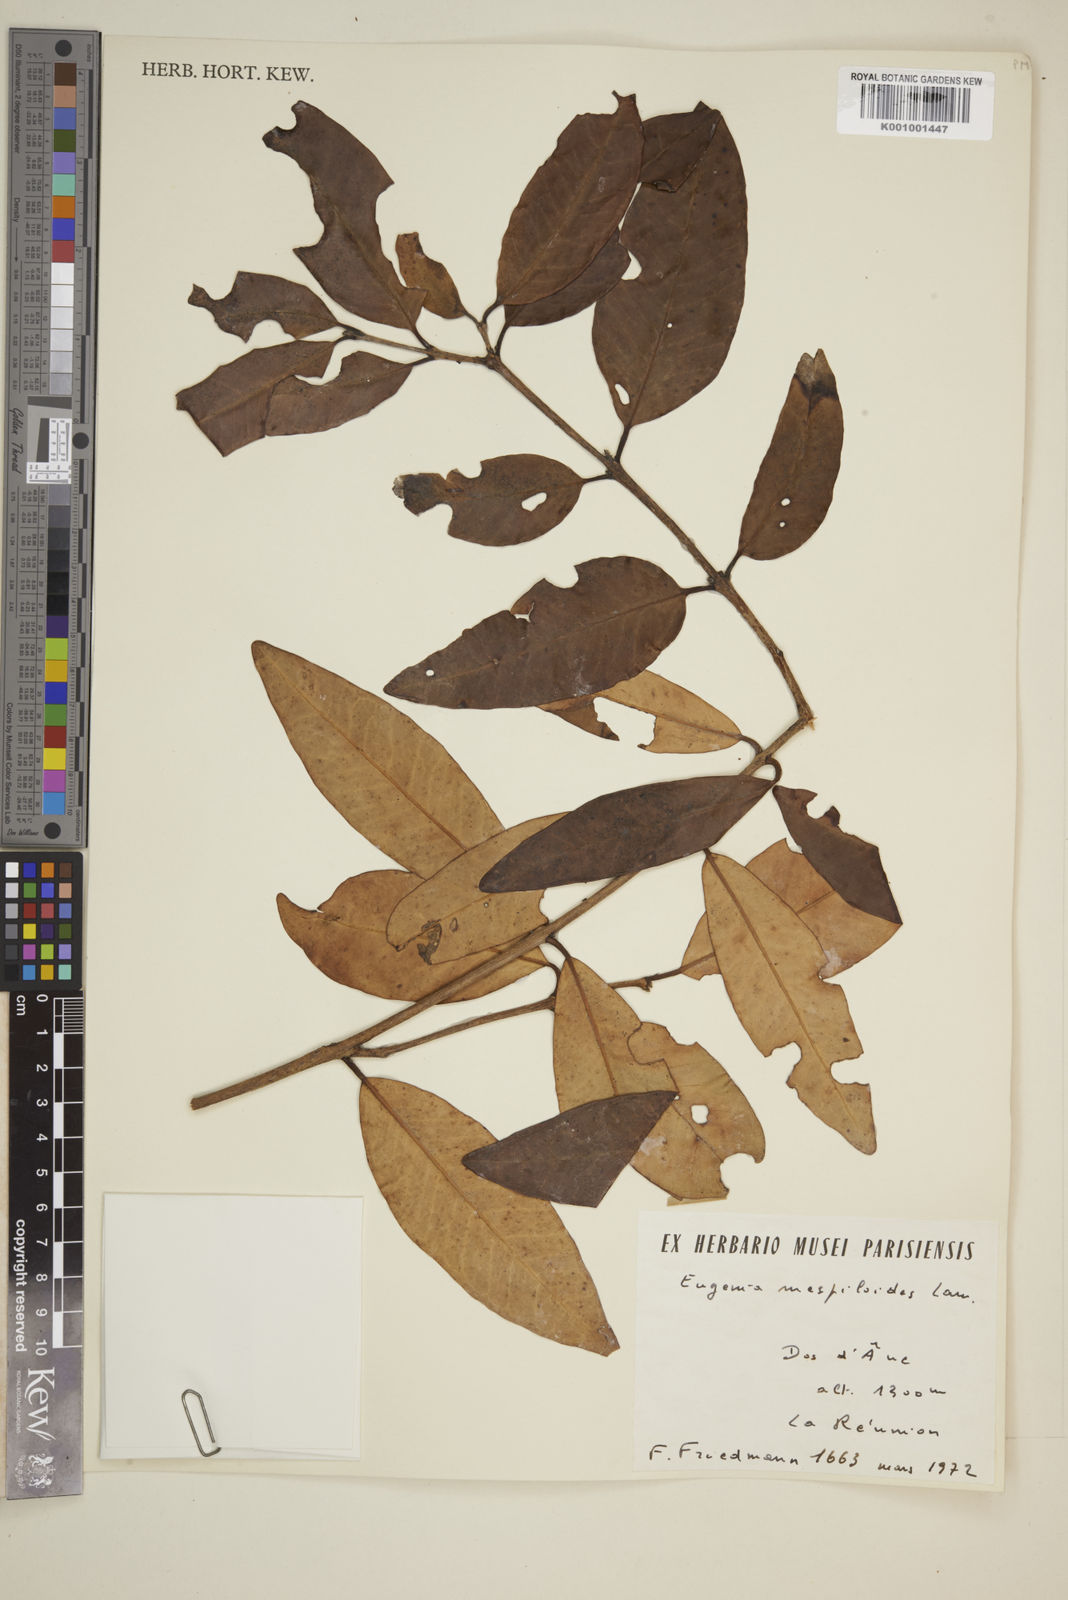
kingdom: Plantae
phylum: Tracheophyta
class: Magnoliopsida
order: Myrtales
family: Myrtaceae
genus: Eugenia
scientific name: Eugenia mespiloides
